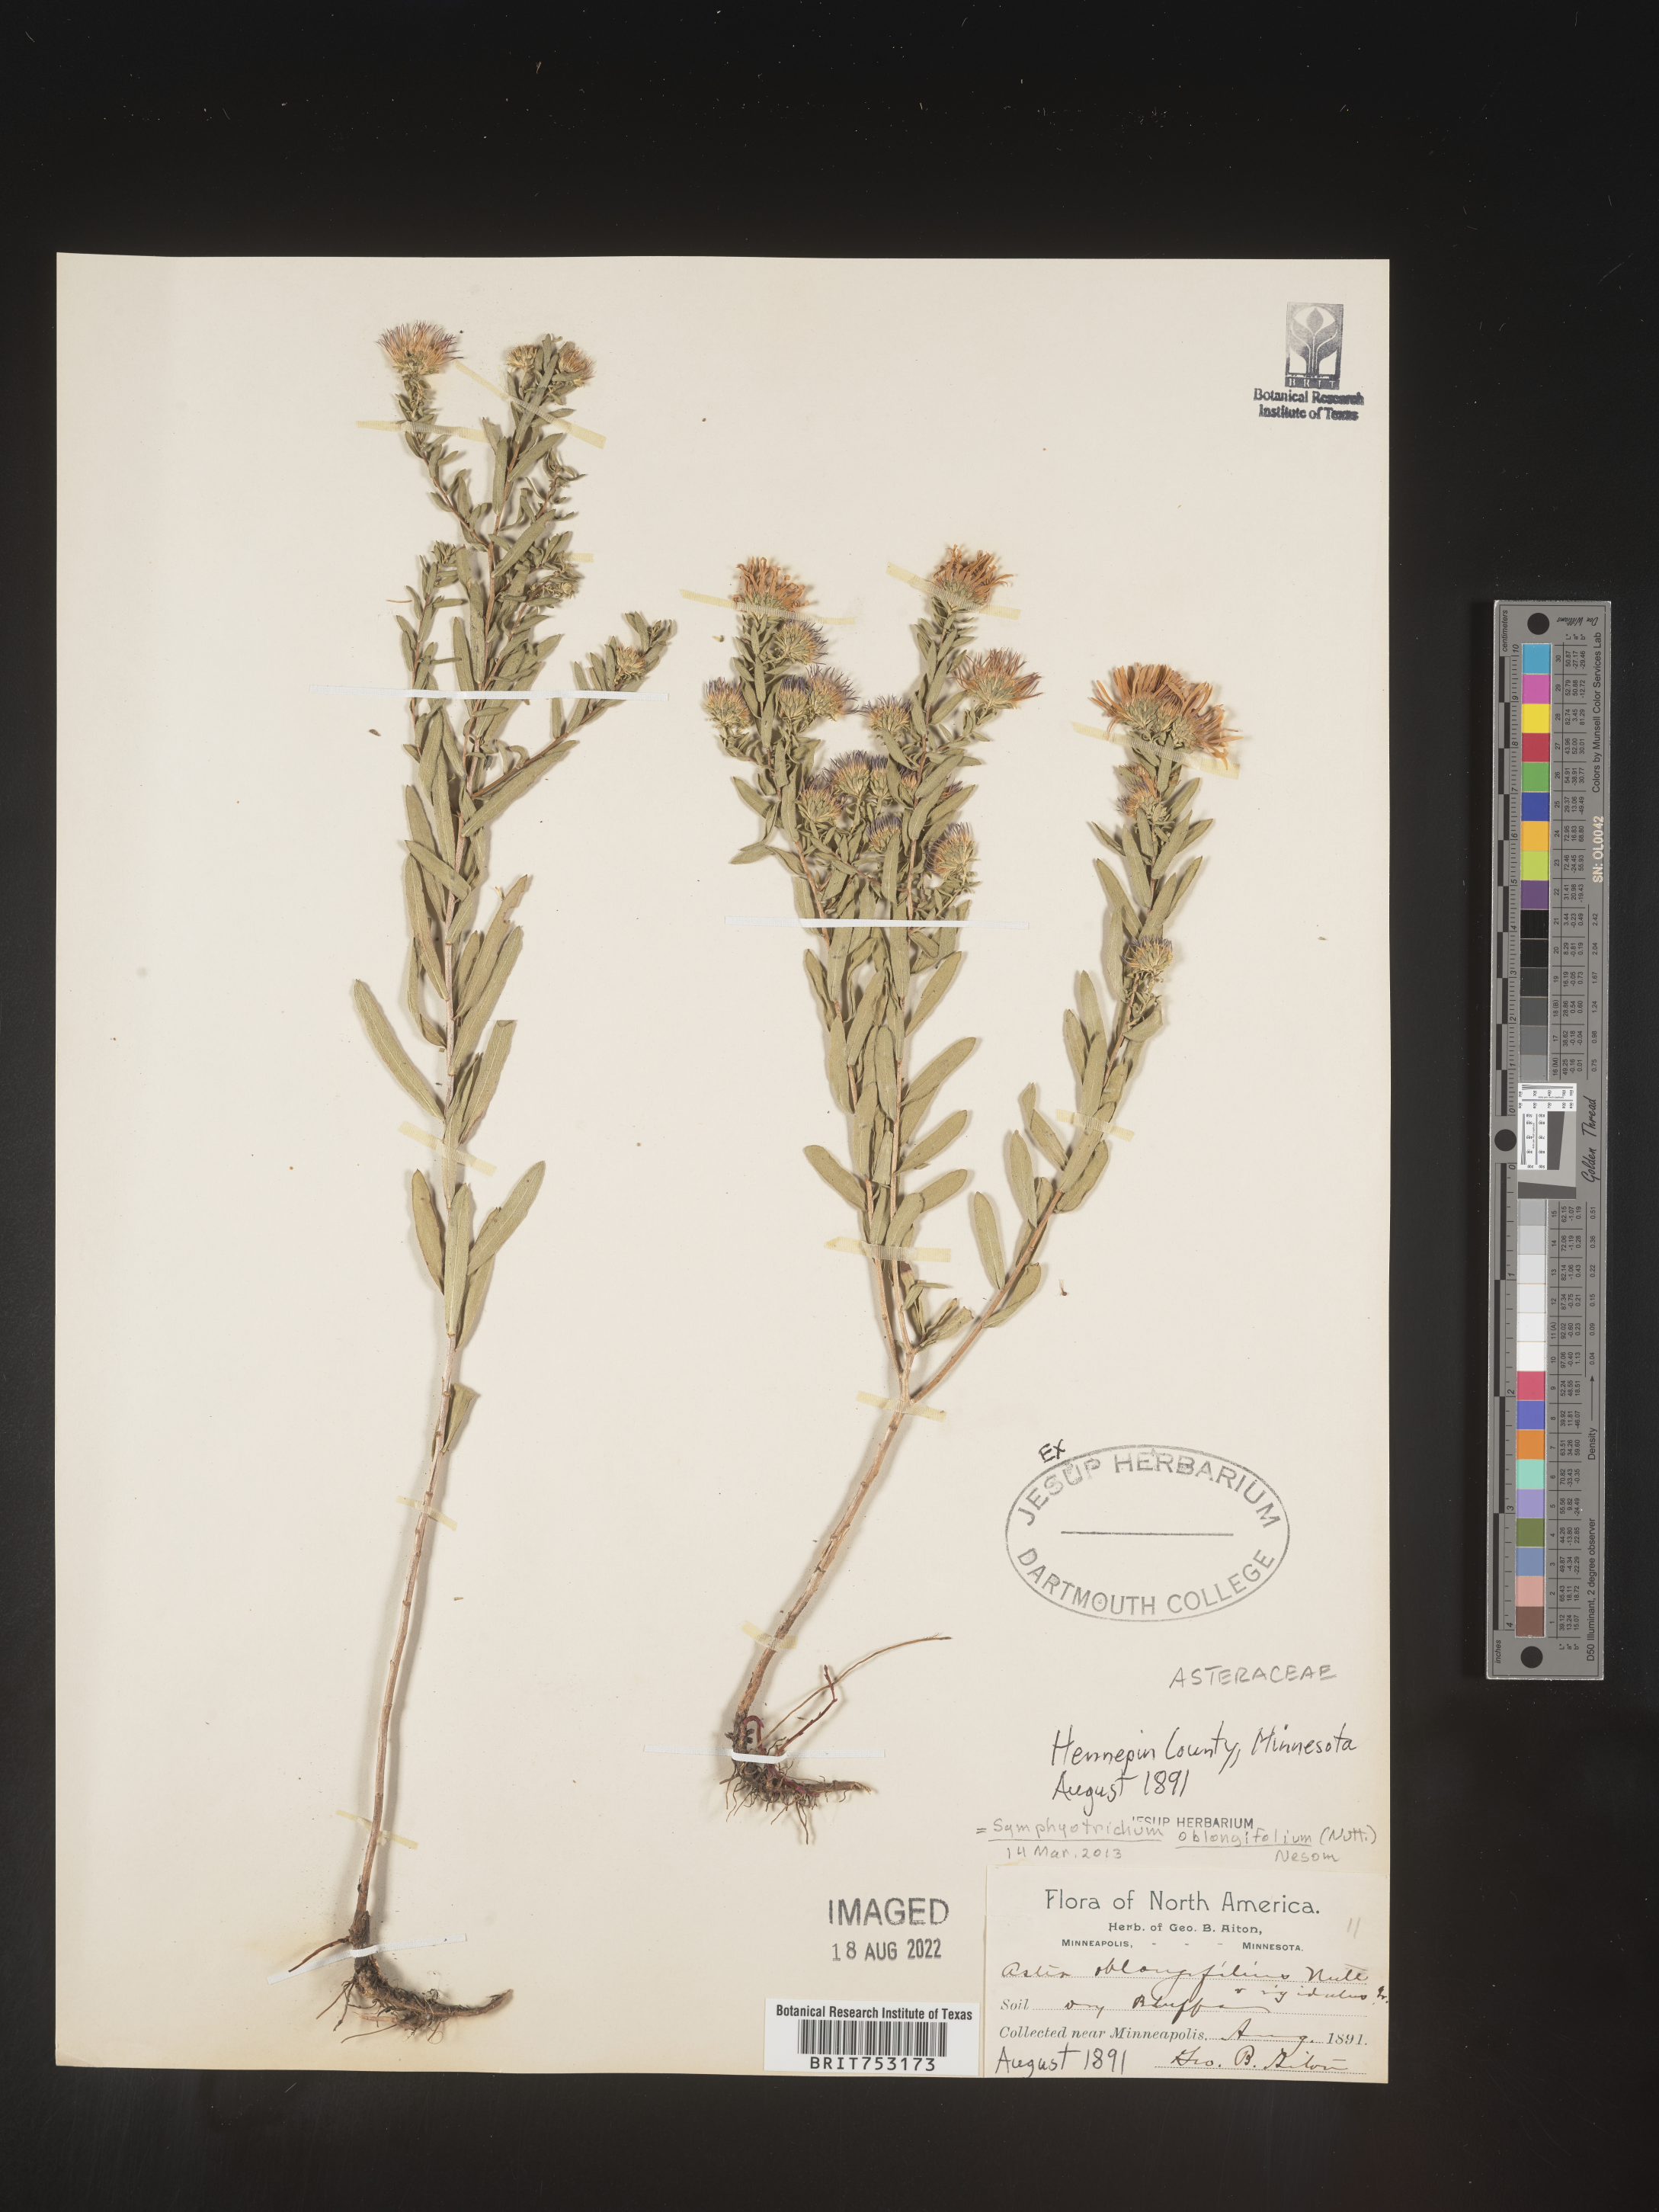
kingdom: Plantae
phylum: Tracheophyta
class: Magnoliopsida
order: Asterales
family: Asteraceae
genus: Symphyotrichum
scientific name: Symphyotrichum oblongifolium
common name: Aromatic aster
